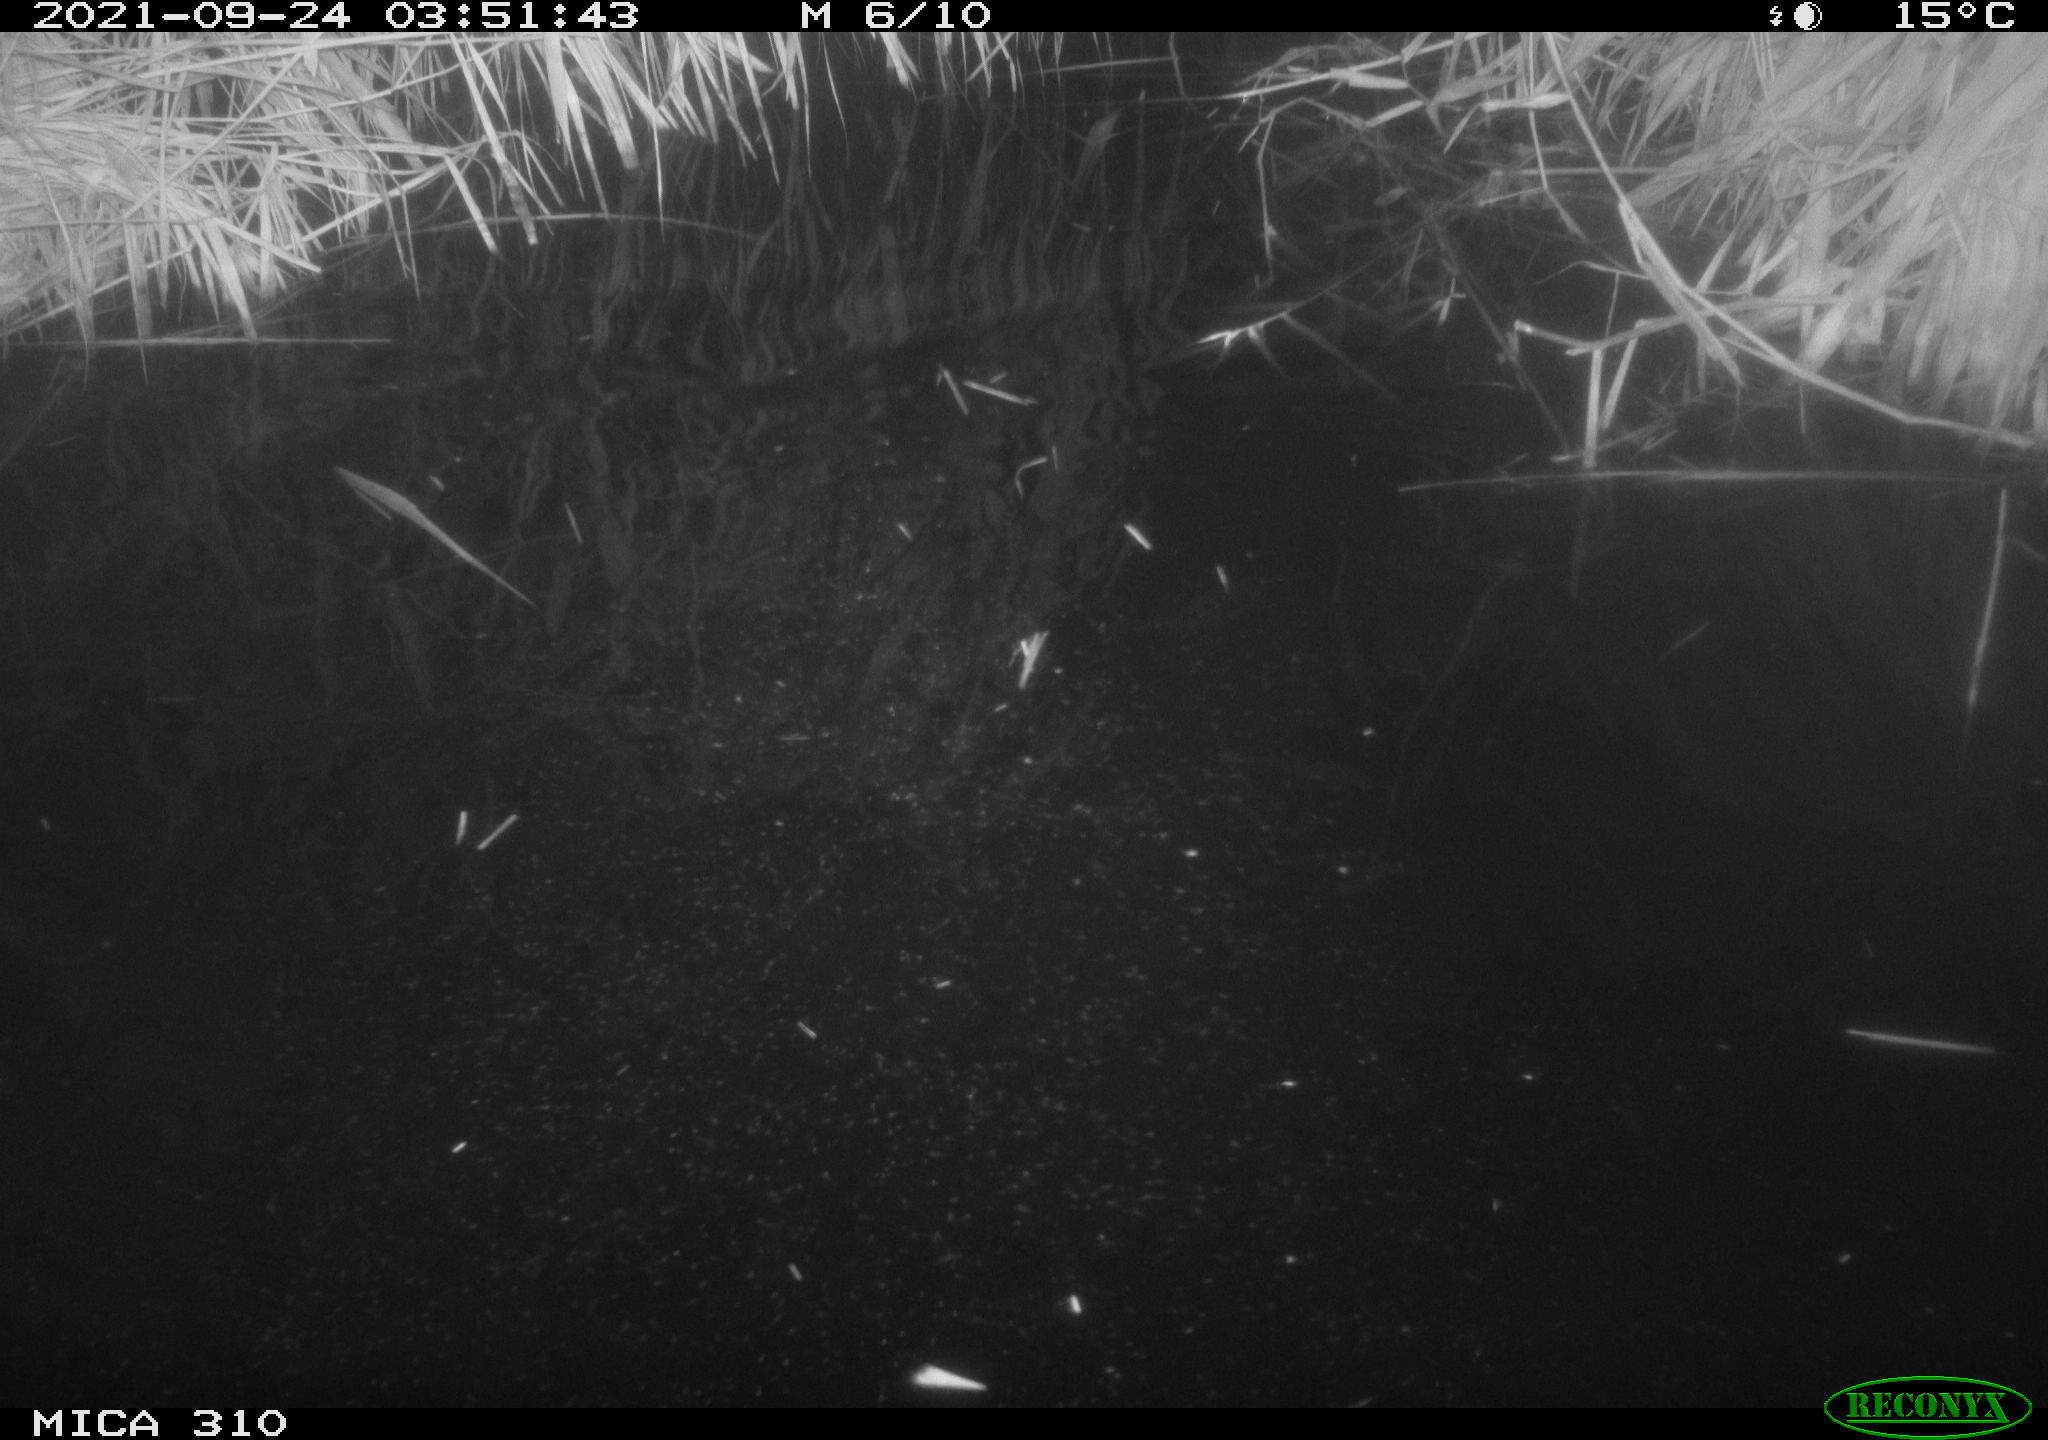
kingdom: Animalia
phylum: Chordata
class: Mammalia
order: Rodentia
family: Muridae
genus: Rattus
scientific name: Rattus norvegicus
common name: Brown rat
